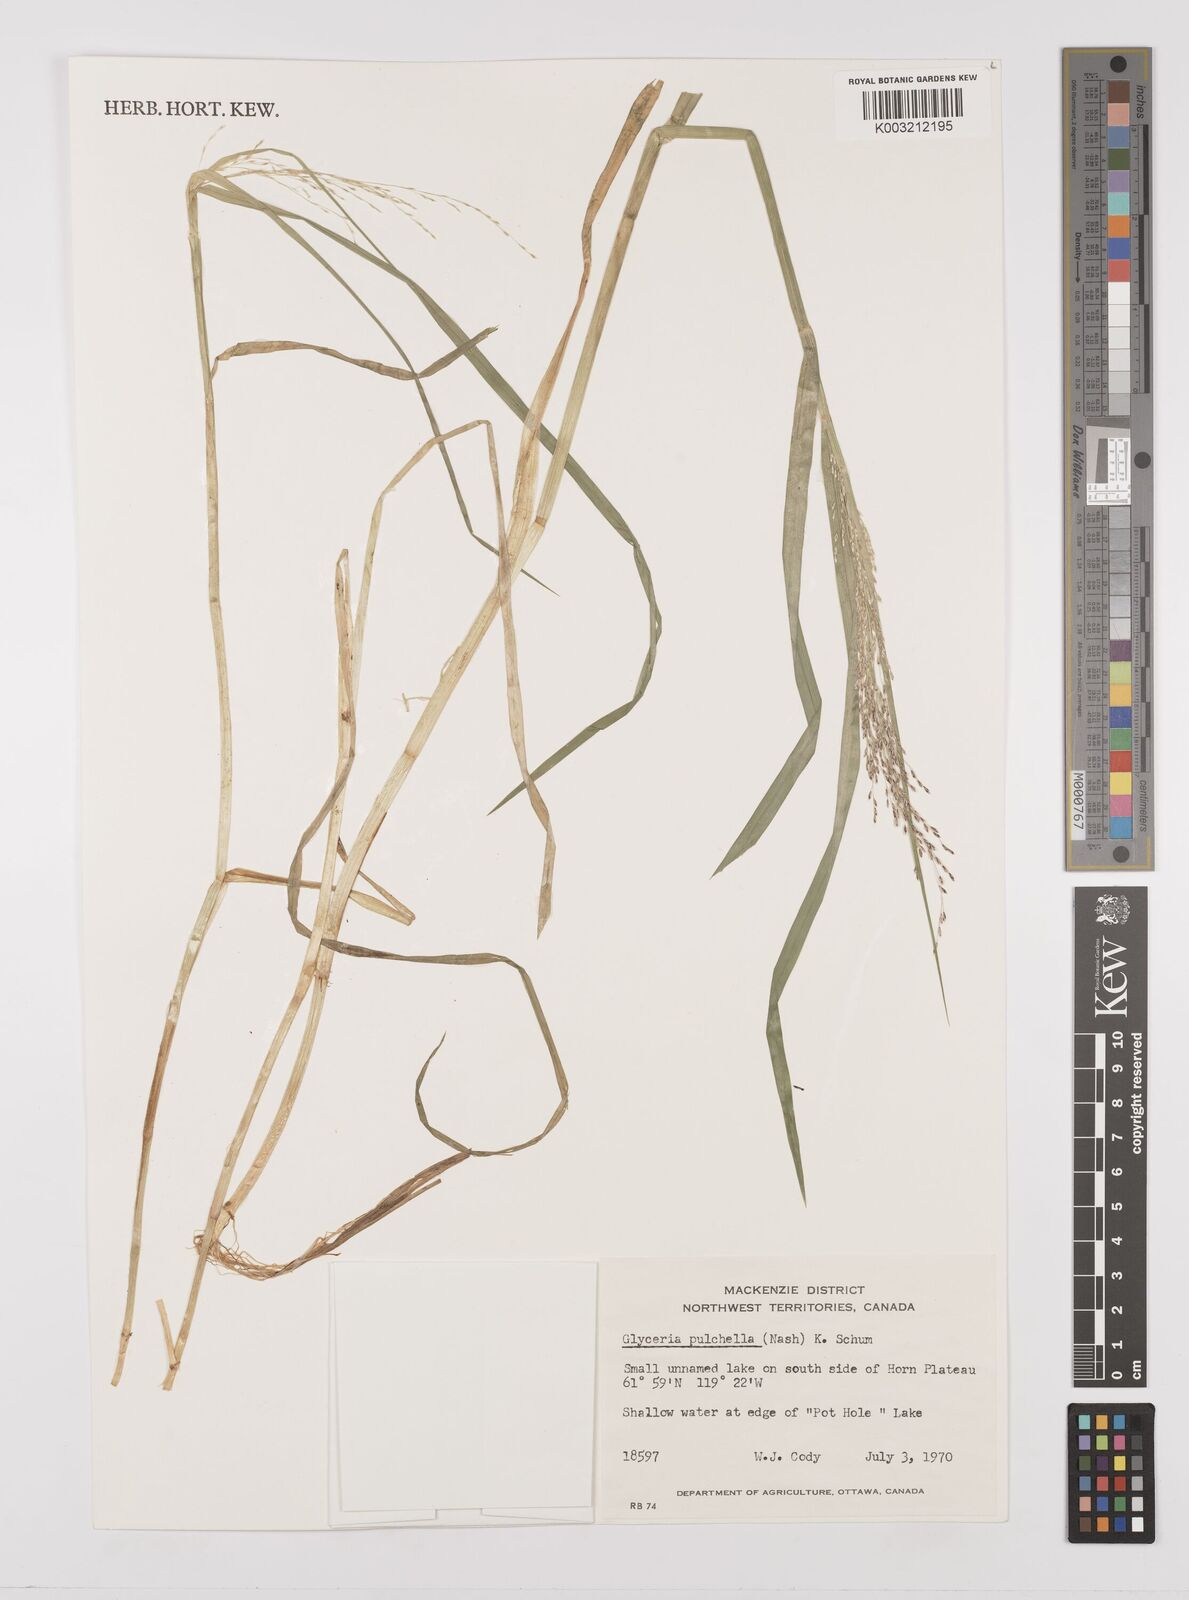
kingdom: Plantae
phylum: Tracheophyta
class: Liliopsida
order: Poales
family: Poaceae
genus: Glyceria
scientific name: Glyceria pulchella
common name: Mackenzie valley mannagrass
